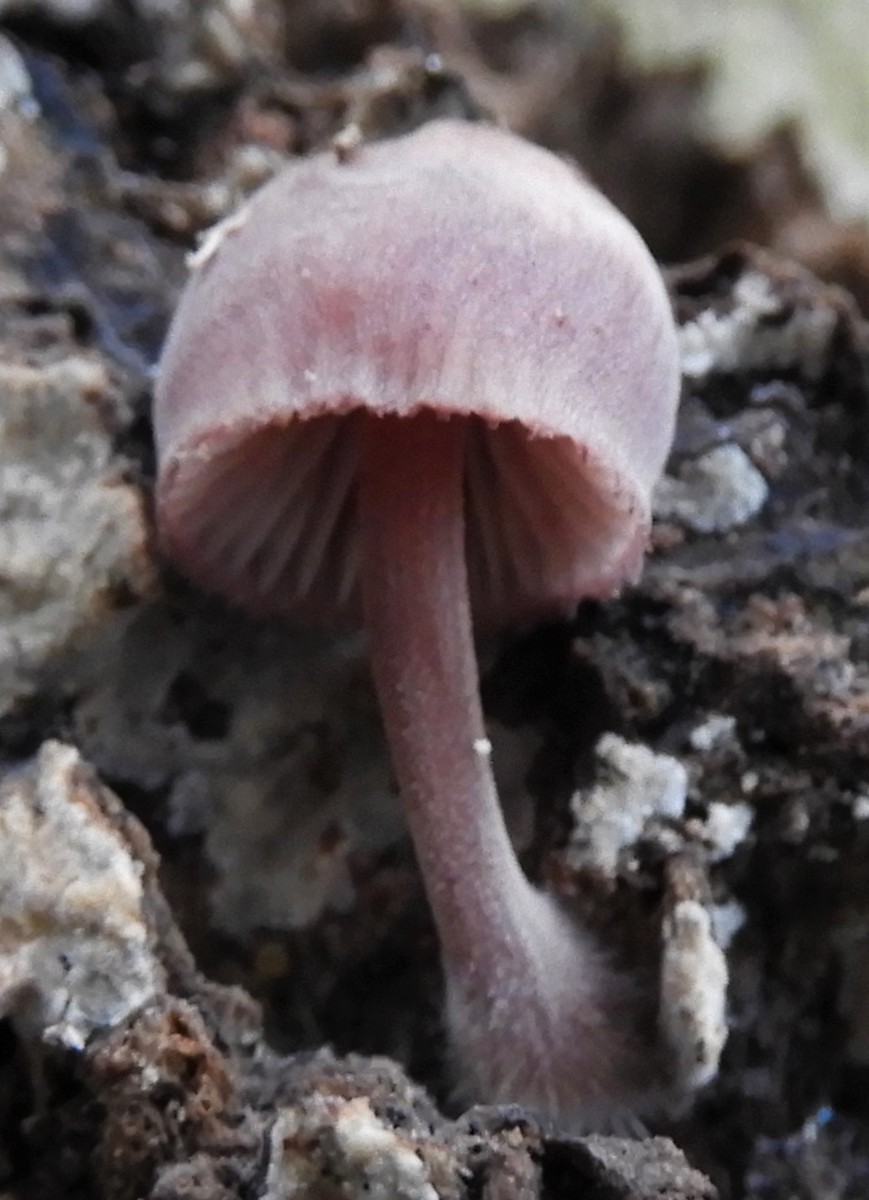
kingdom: Fungi
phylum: Basidiomycota
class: Agaricomycetes
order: Agaricales
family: Mycenaceae
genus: Mycena
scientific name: Mycena haematopus
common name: blødende huesvamp
